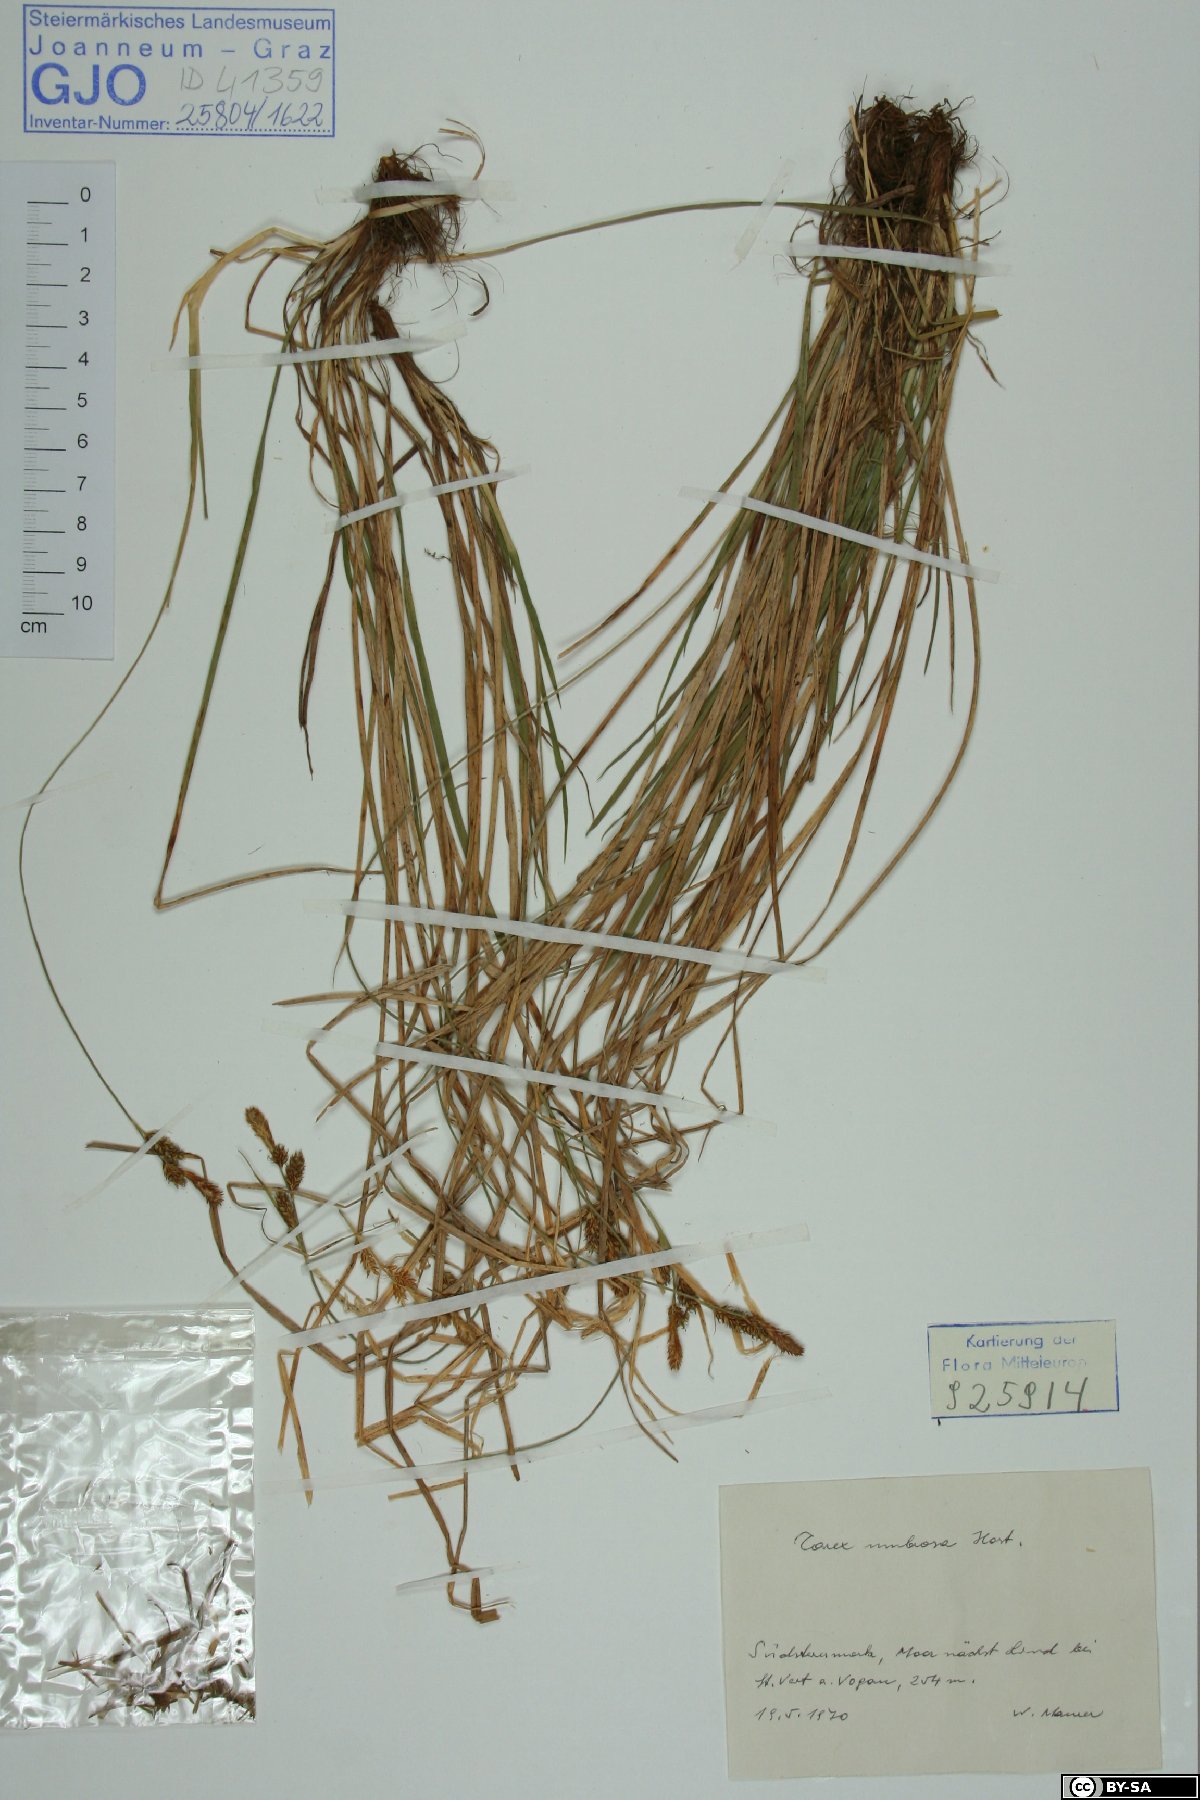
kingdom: Plantae
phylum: Tracheophyta
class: Liliopsida
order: Poales
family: Cyperaceae
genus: Carex
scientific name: Carex umbrosa
